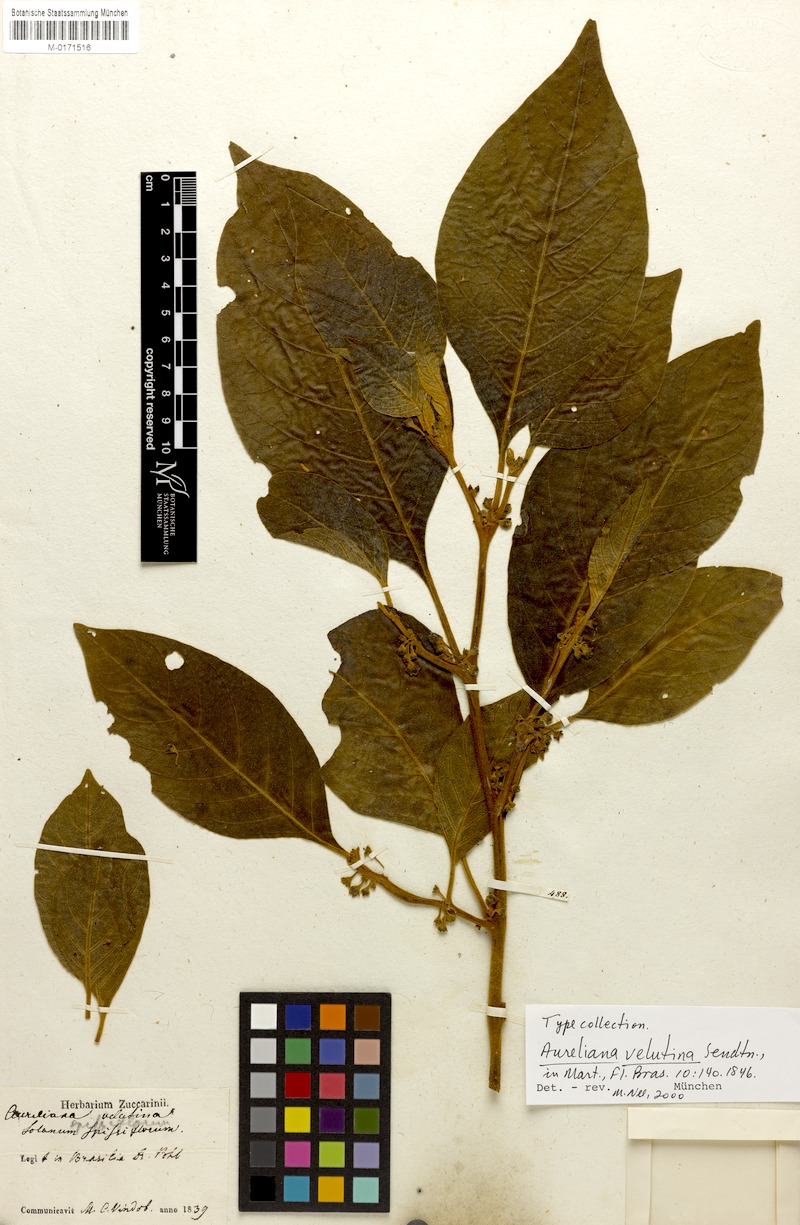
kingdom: Plantae
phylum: Tracheophyta
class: Magnoliopsida
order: Solanales
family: Solanaceae
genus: Athenaea
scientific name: Athenaea velutina
